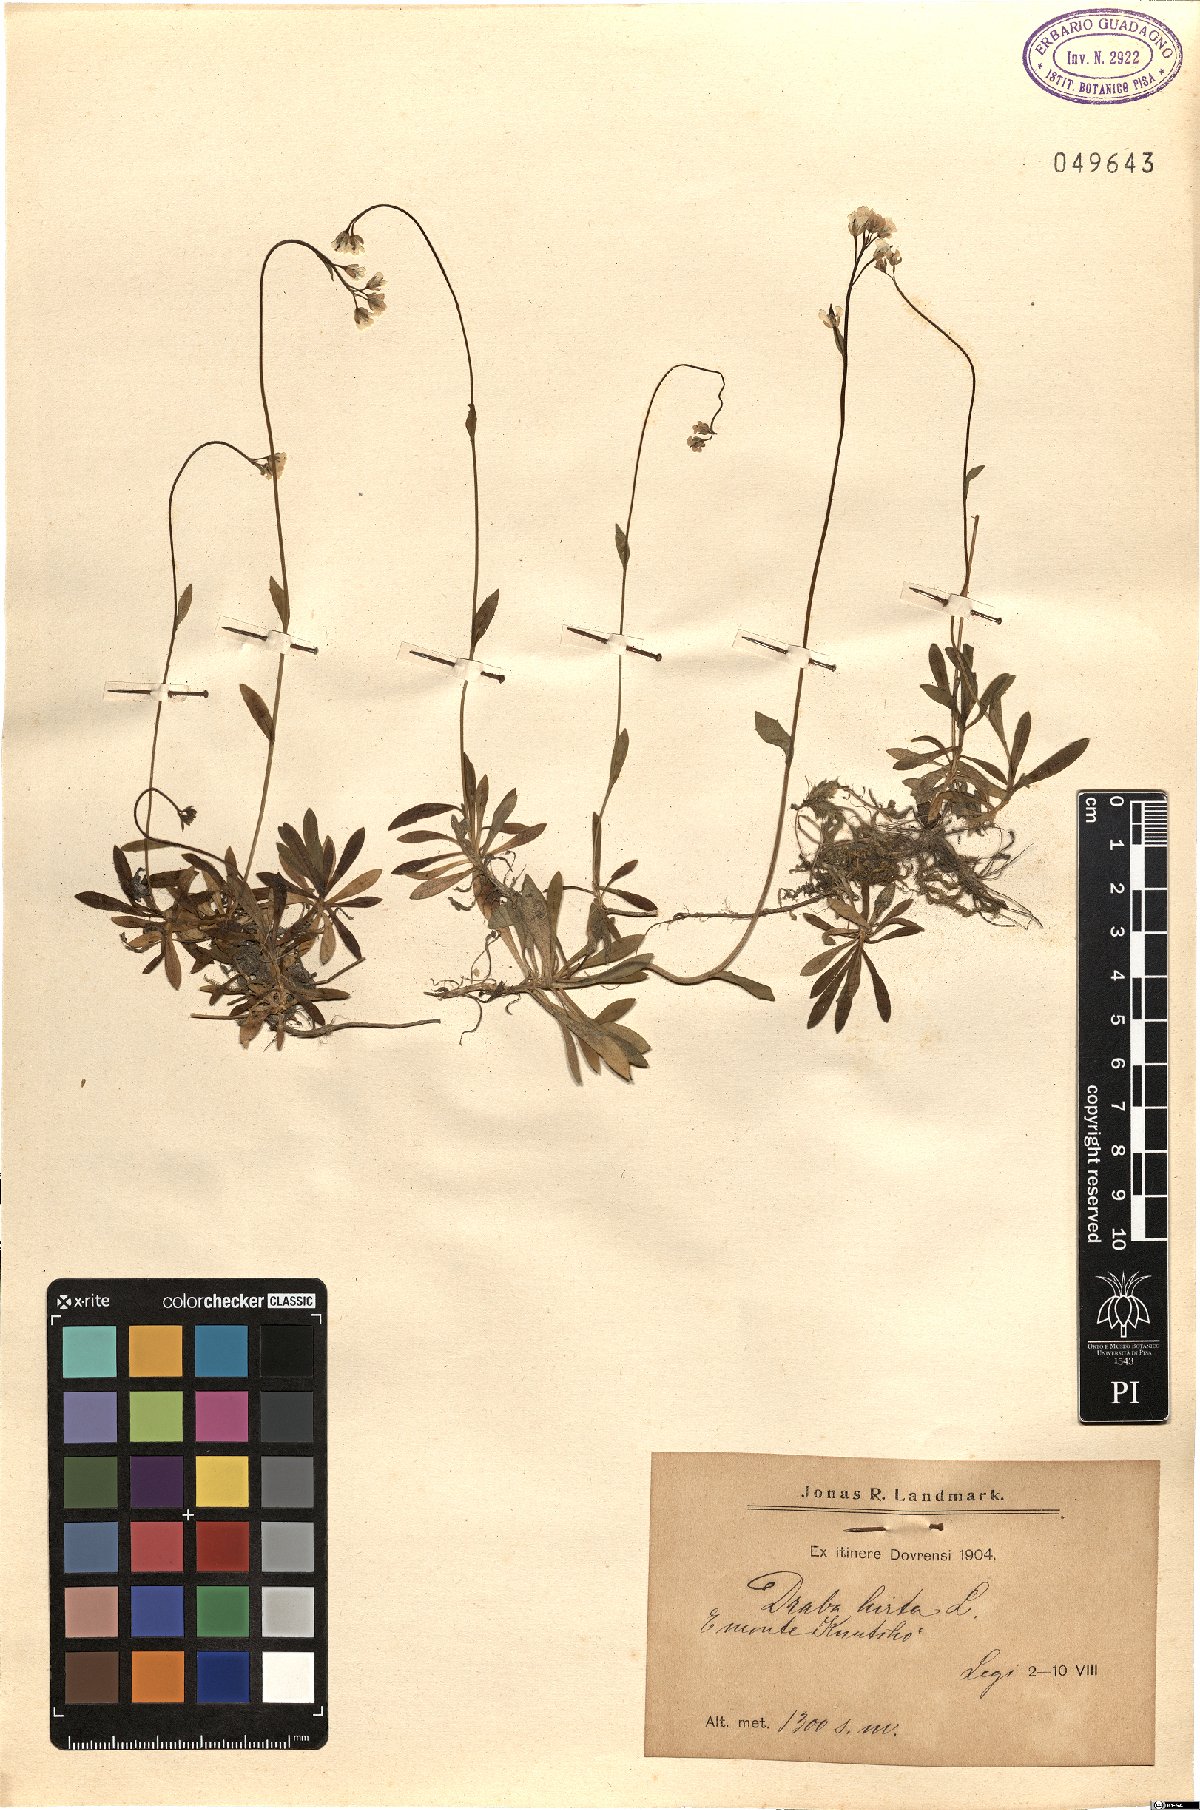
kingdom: Plantae
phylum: Tracheophyta
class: Magnoliopsida
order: Brassicales
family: Brassicaceae
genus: Draba
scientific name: Draba glabella
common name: Glaucous draba
